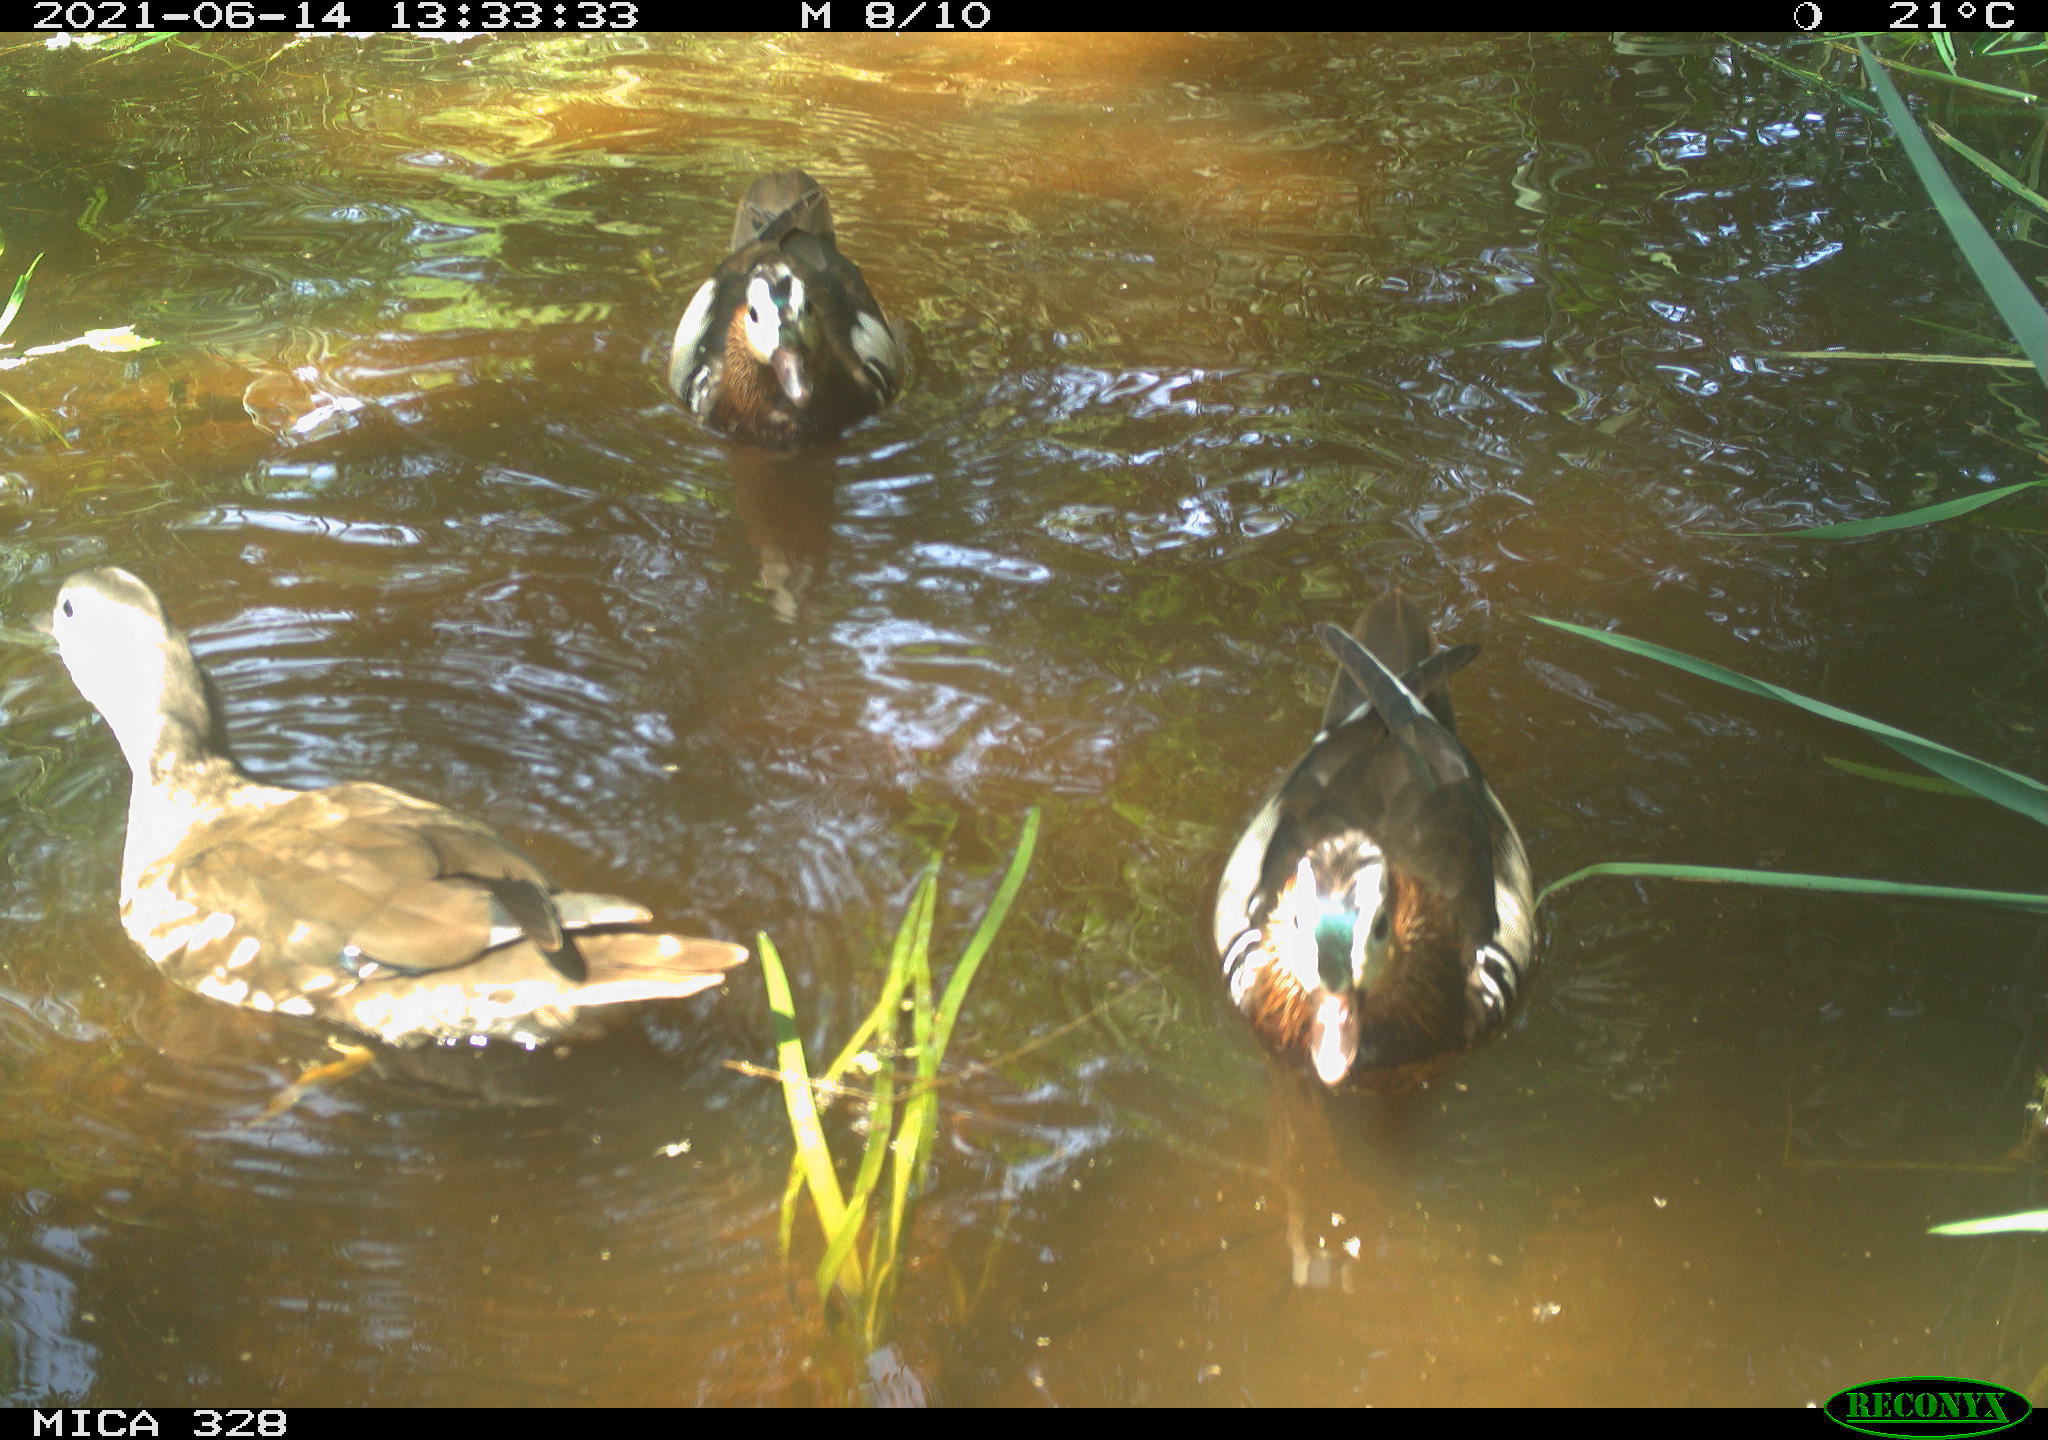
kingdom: Animalia
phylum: Chordata
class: Aves
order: Anseriformes
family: Anatidae
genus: Aix
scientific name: Aix galericulata
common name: Mandarin duck
